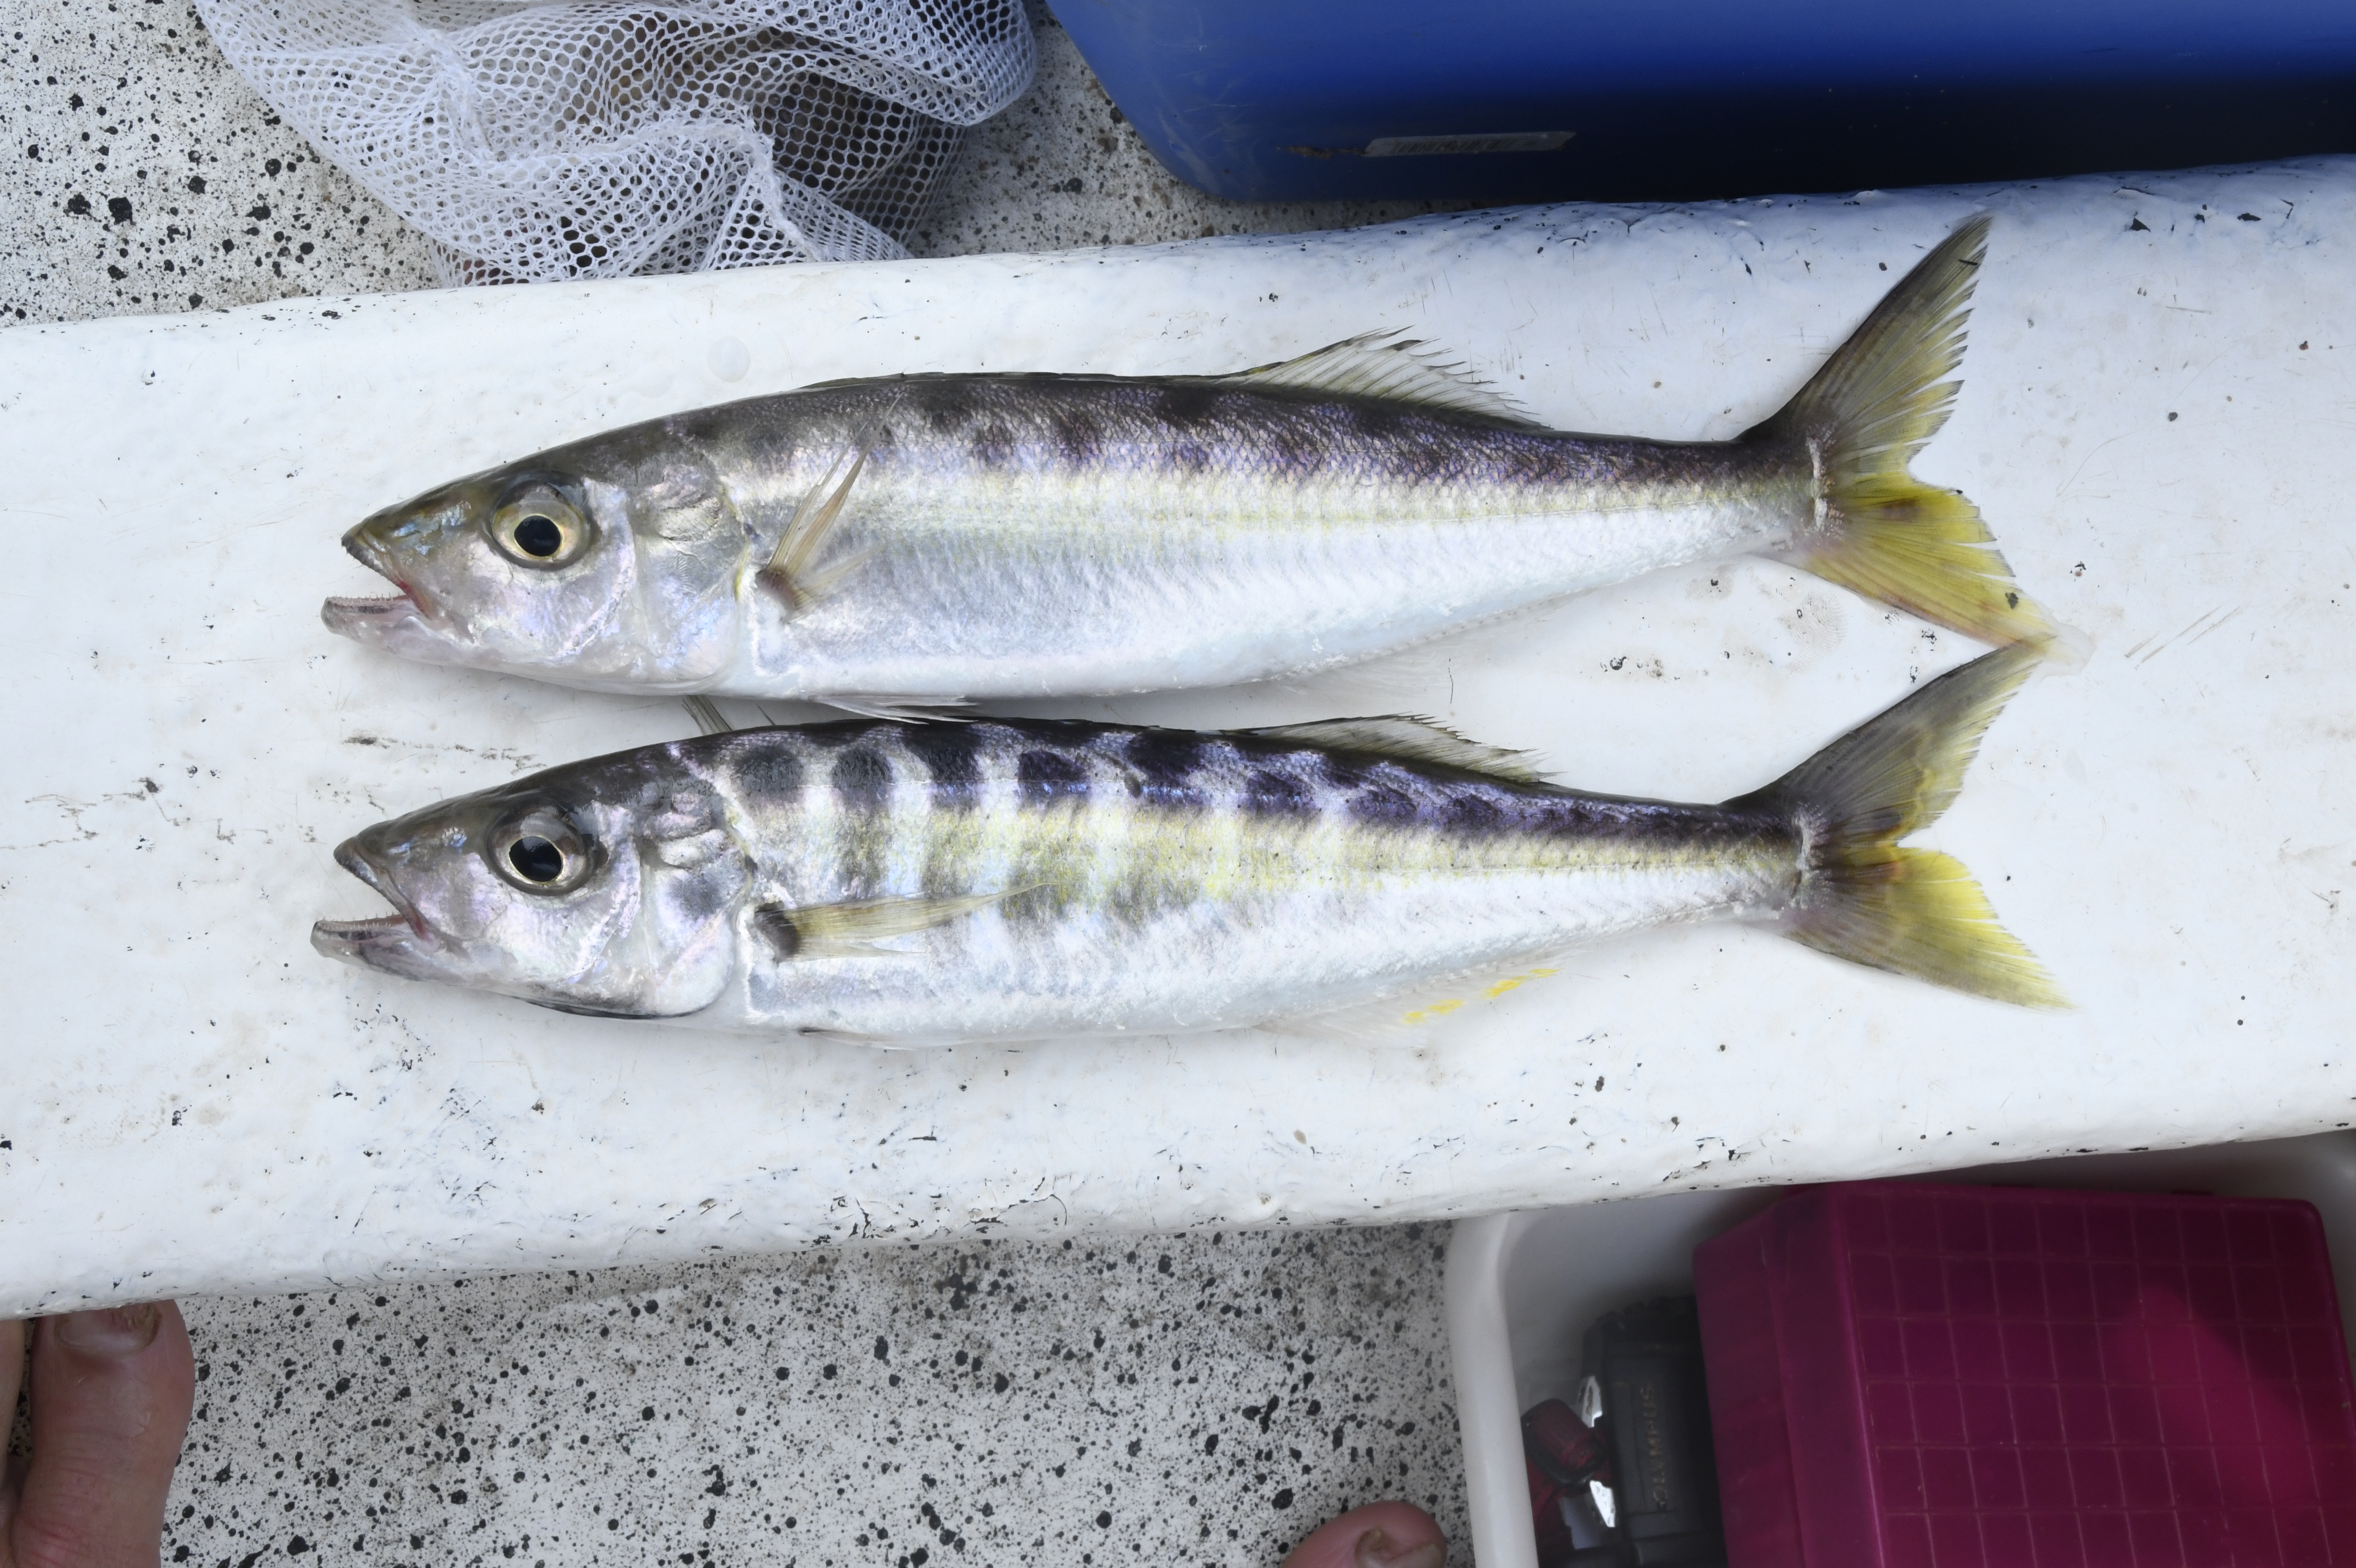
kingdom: Animalia
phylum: Chordata
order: Perciformes
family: Cichlidae
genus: Bathybates
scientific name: Bathybates
